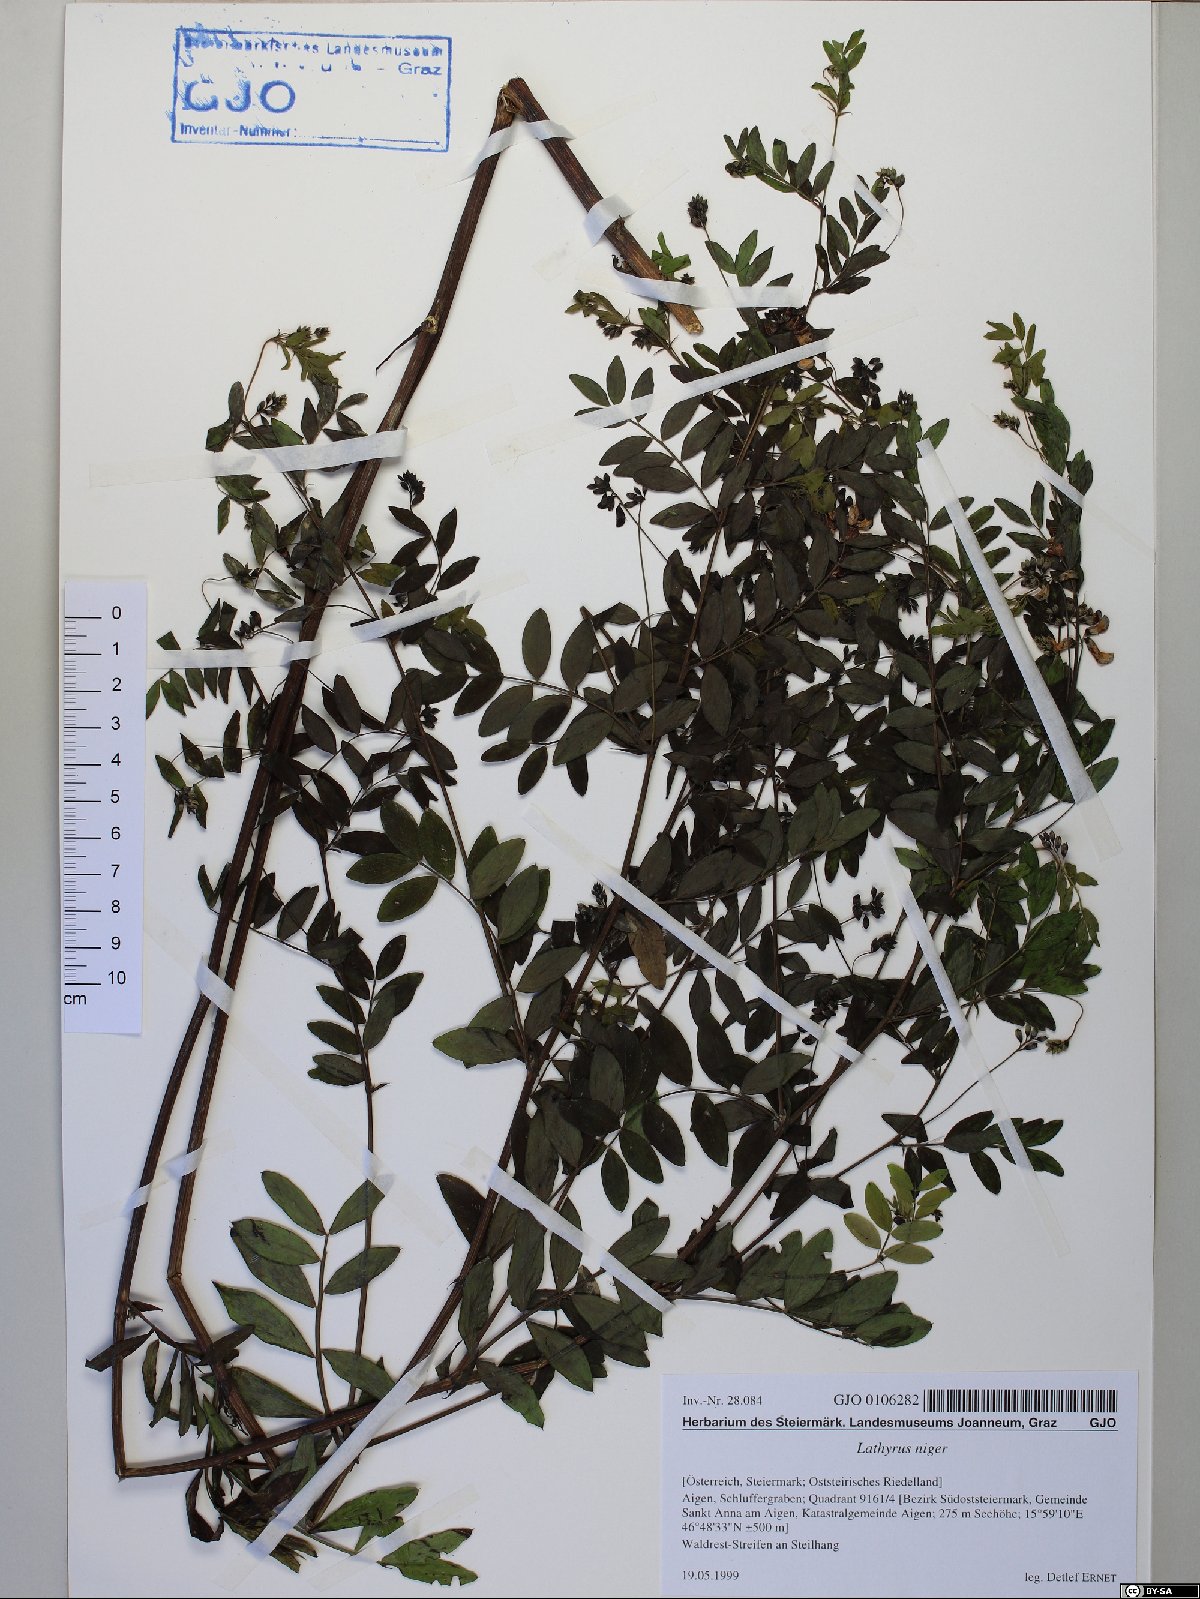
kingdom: Plantae
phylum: Tracheophyta
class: Magnoliopsida
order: Fabales
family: Fabaceae
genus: Lathyrus
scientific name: Lathyrus niger
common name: Black pea
